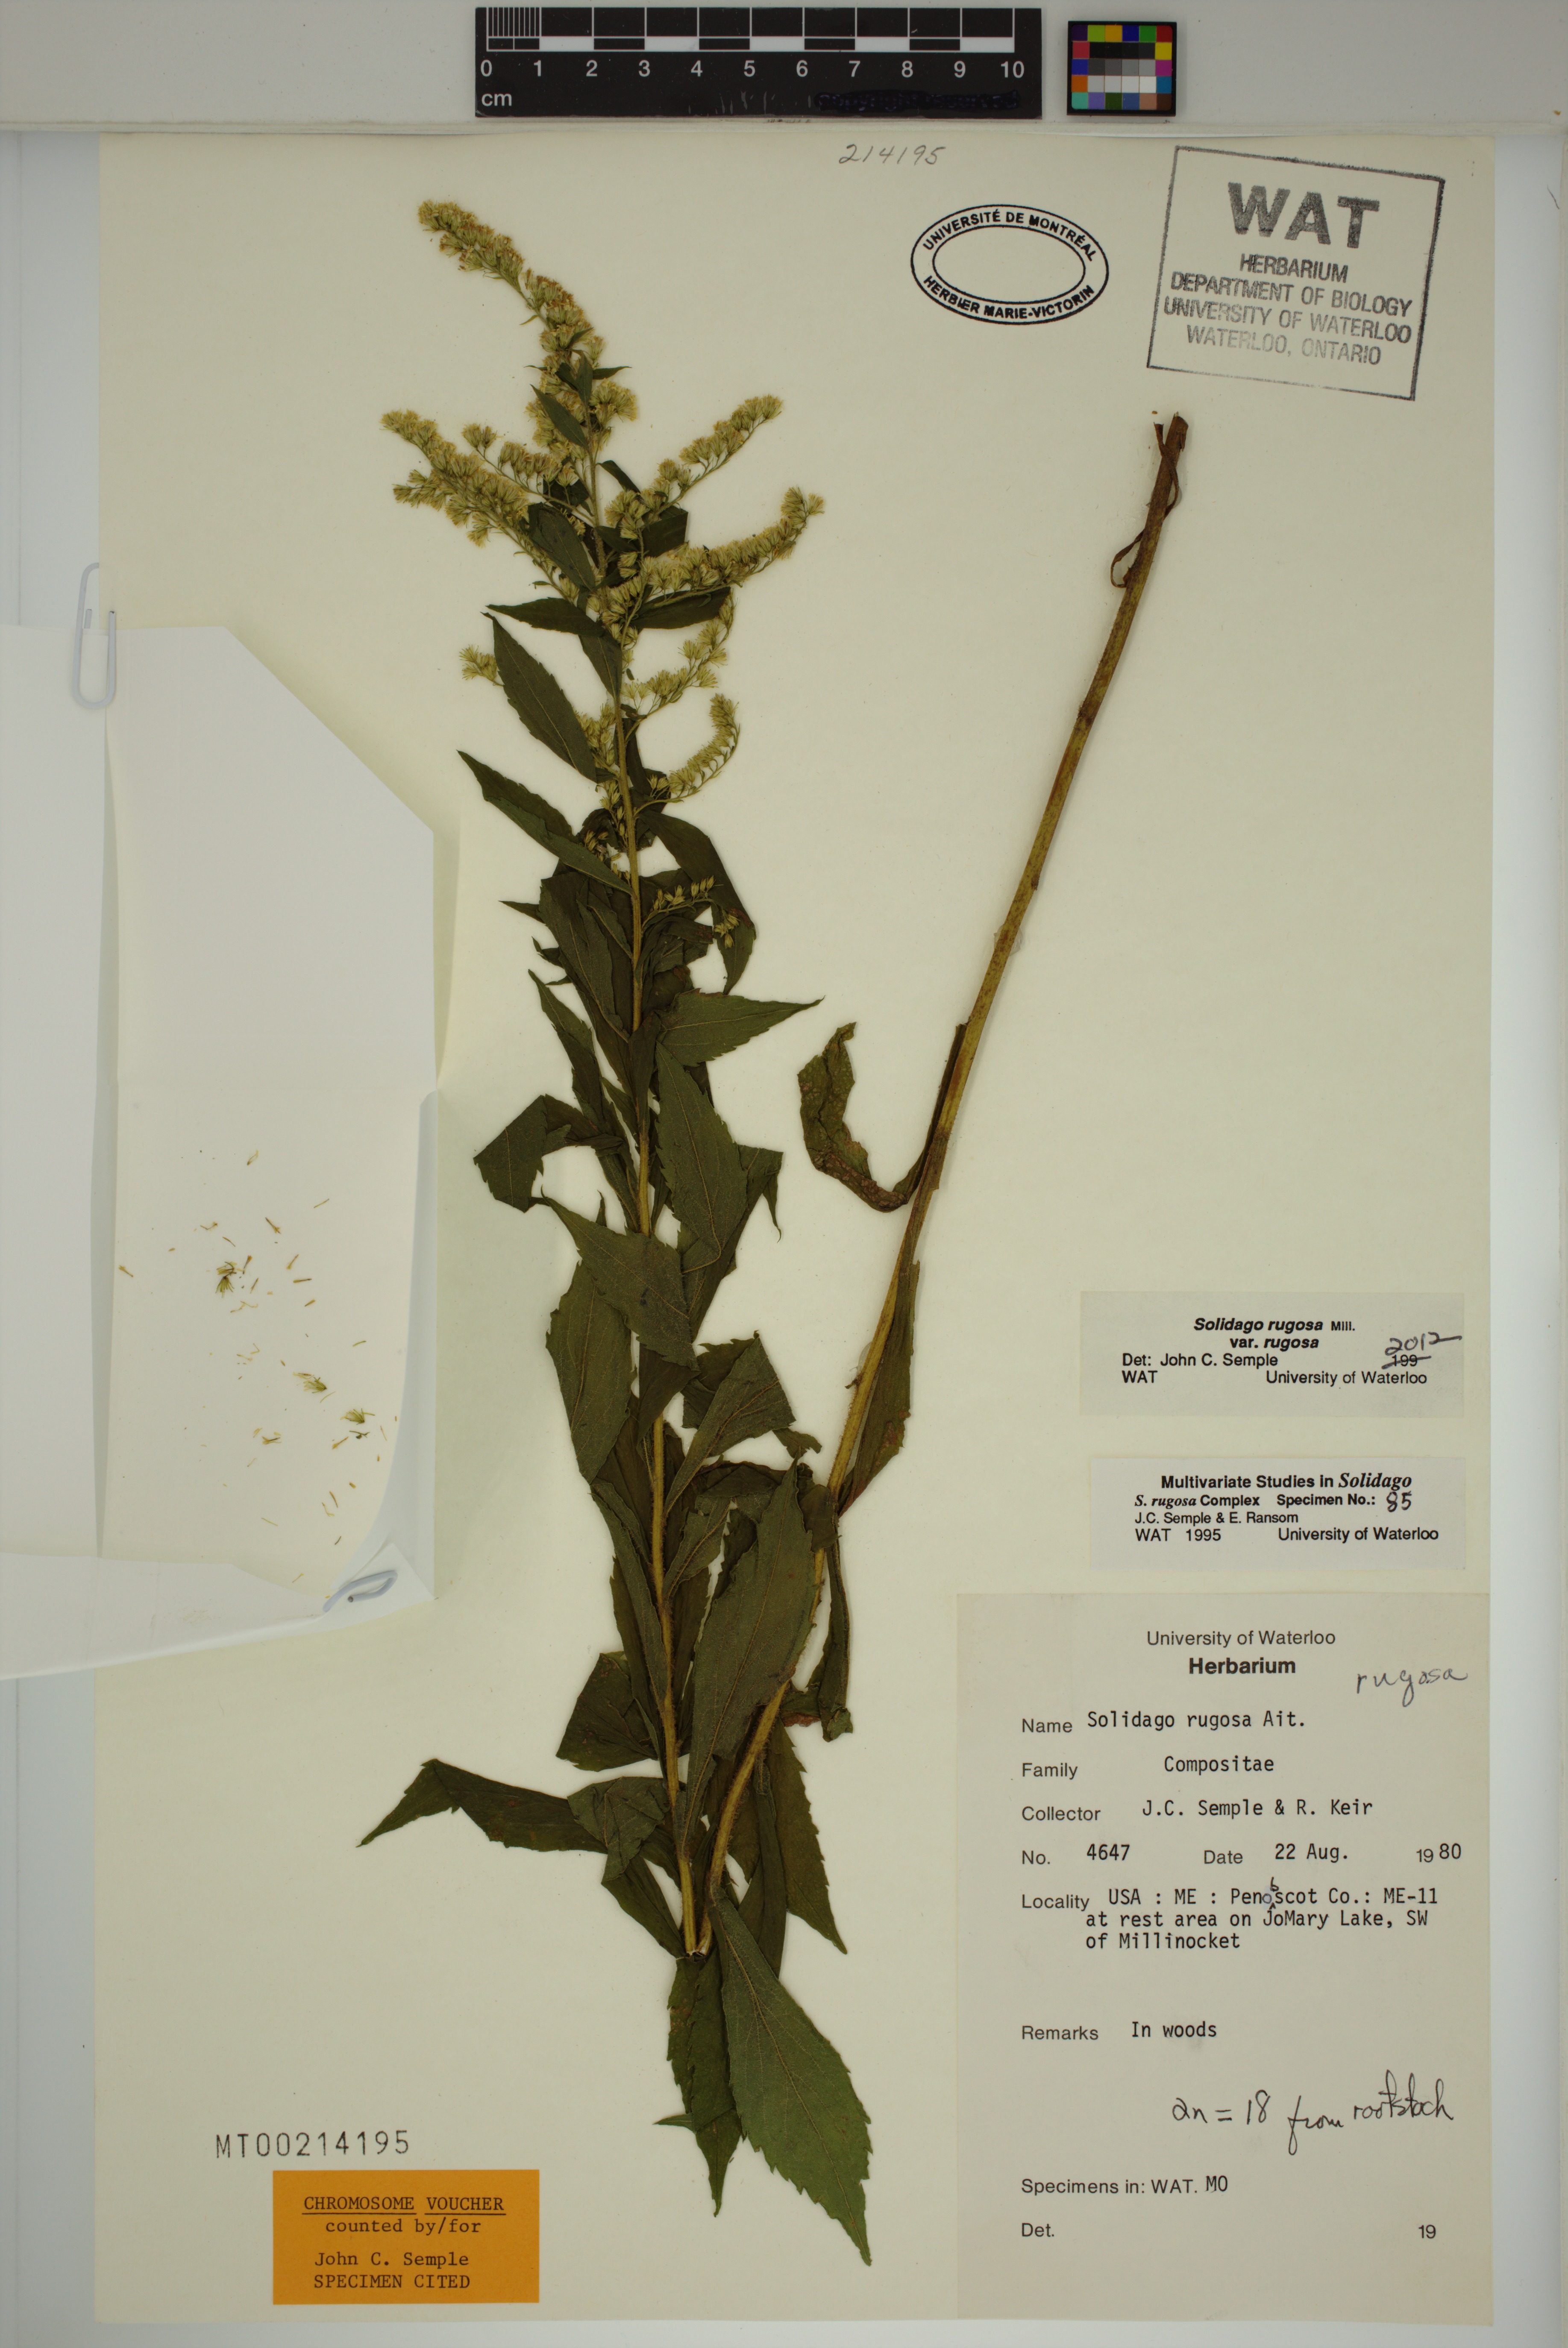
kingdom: Plantae
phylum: Tracheophyta
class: Magnoliopsida
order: Asterales
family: Asteraceae
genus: Solidago
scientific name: Solidago rugosa
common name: Rough-stemmed goldenrod
